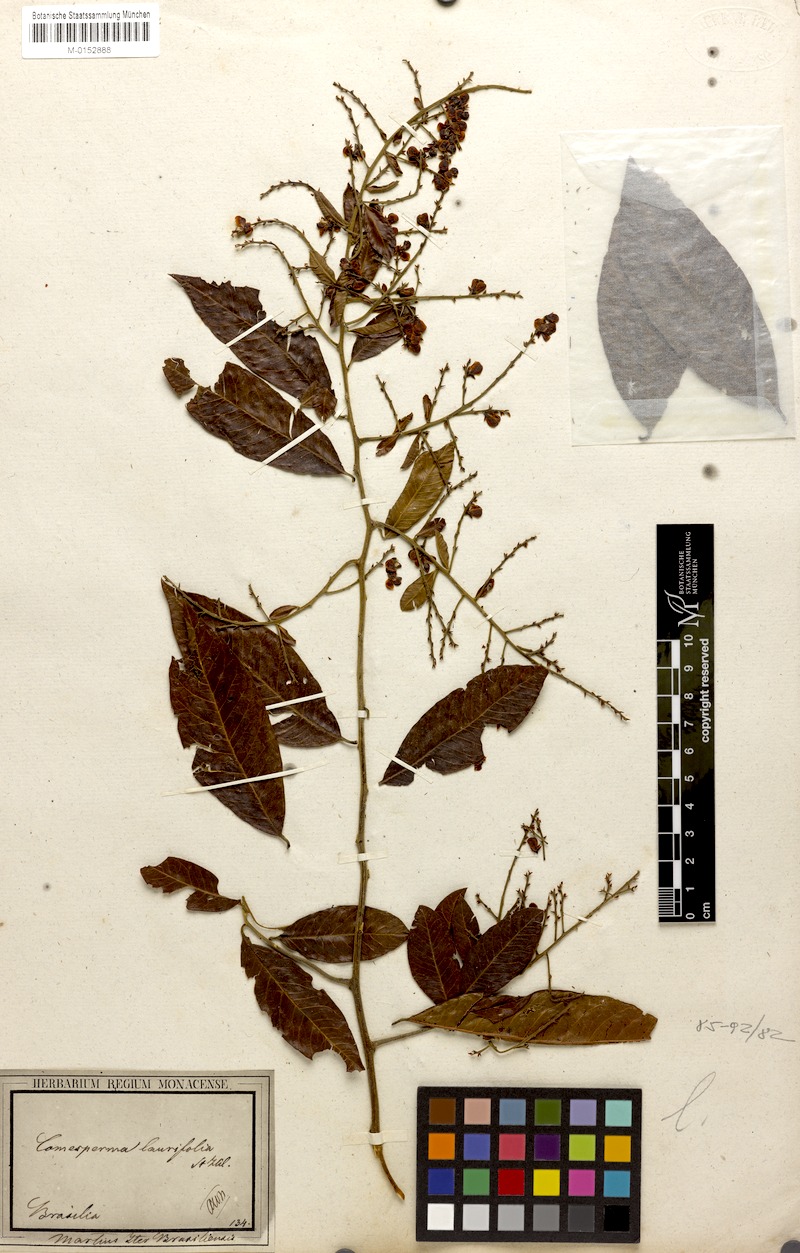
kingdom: Plantae
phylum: Tracheophyta
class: Magnoliopsida
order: Fabales
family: Polygalaceae
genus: Bredemeyera
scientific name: Bredemeyera laurifolia
